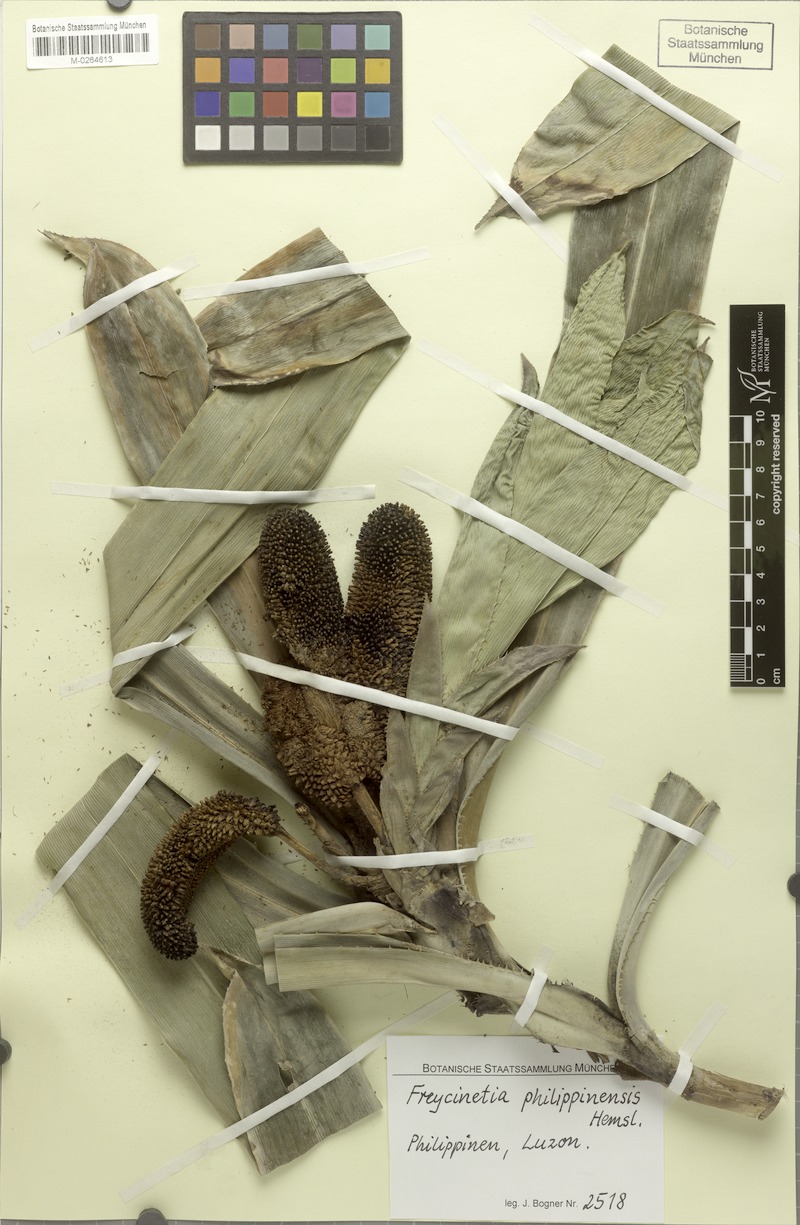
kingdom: Plantae
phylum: Tracheophyta
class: Liliopsida
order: Pandanales
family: Pandanaceae
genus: Freycinetia
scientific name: Freycinetia philippinensis
